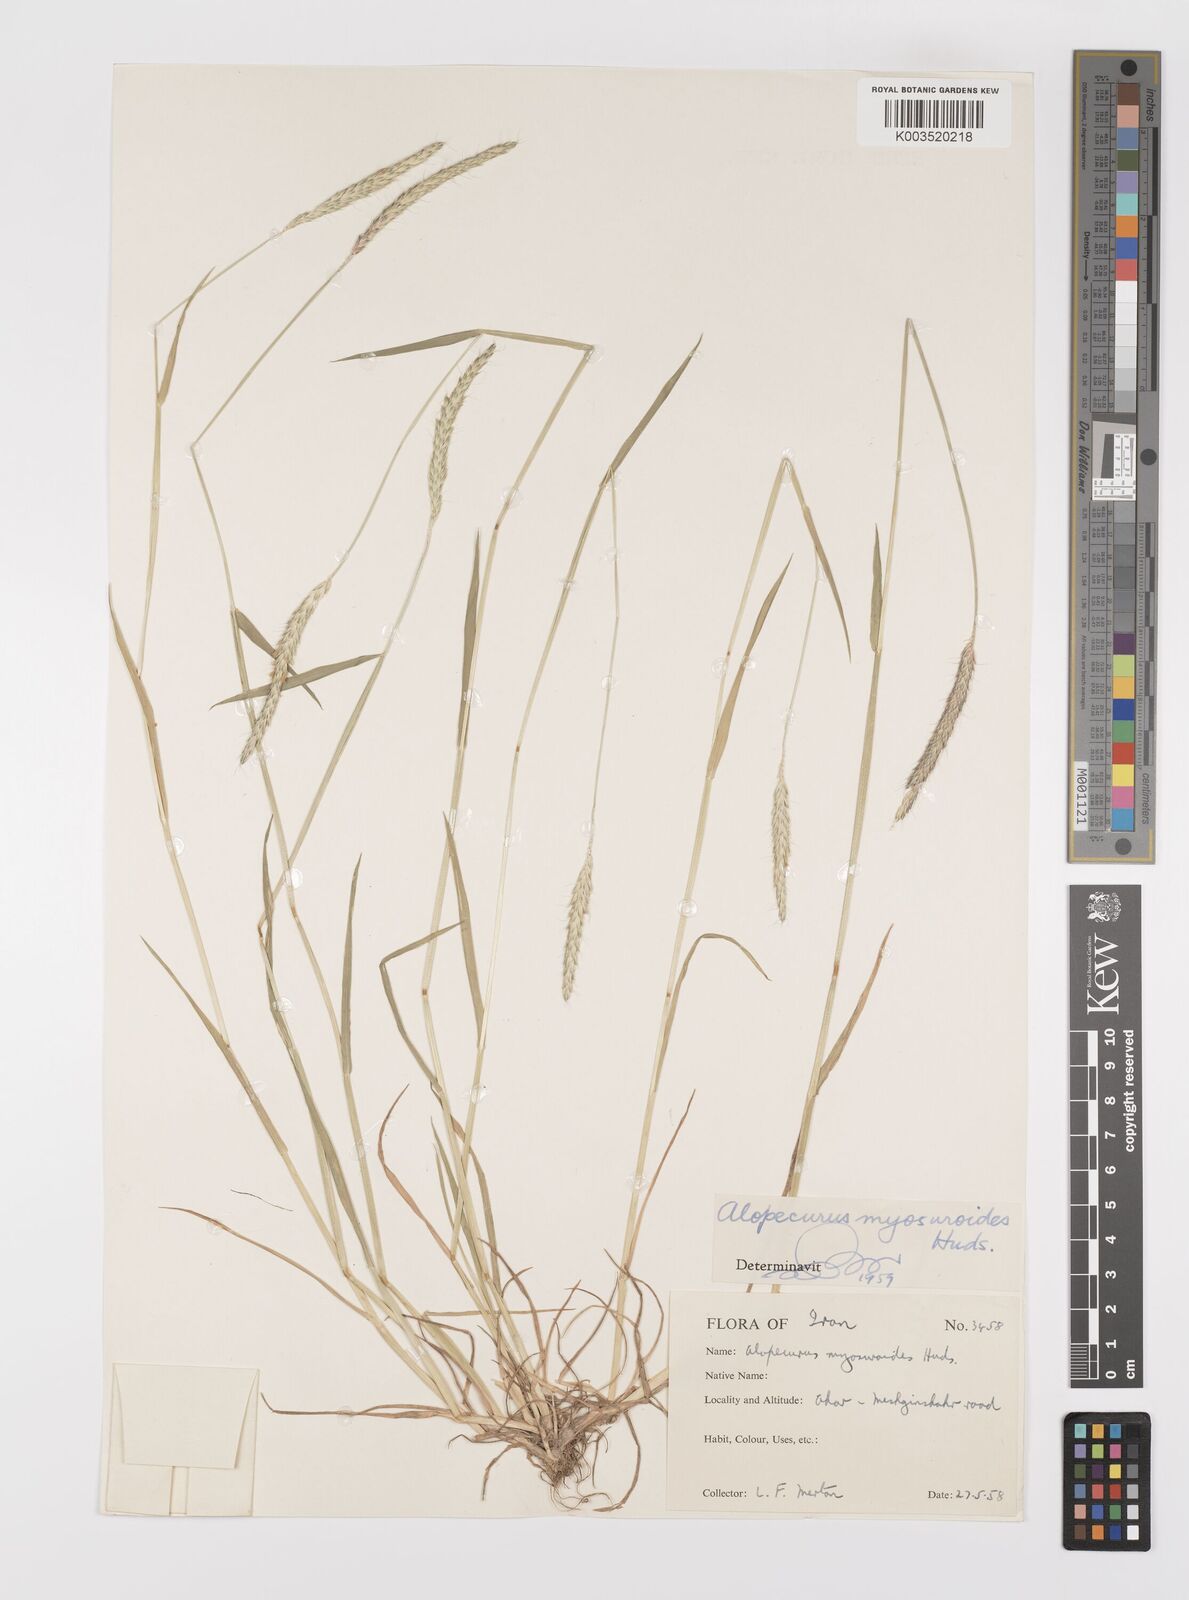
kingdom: Plantae
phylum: Tracheophyta
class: Liliopsida
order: Poales
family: Poaceae
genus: Alopecurus
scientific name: Alopecurus myosuroides
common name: Black-grass
